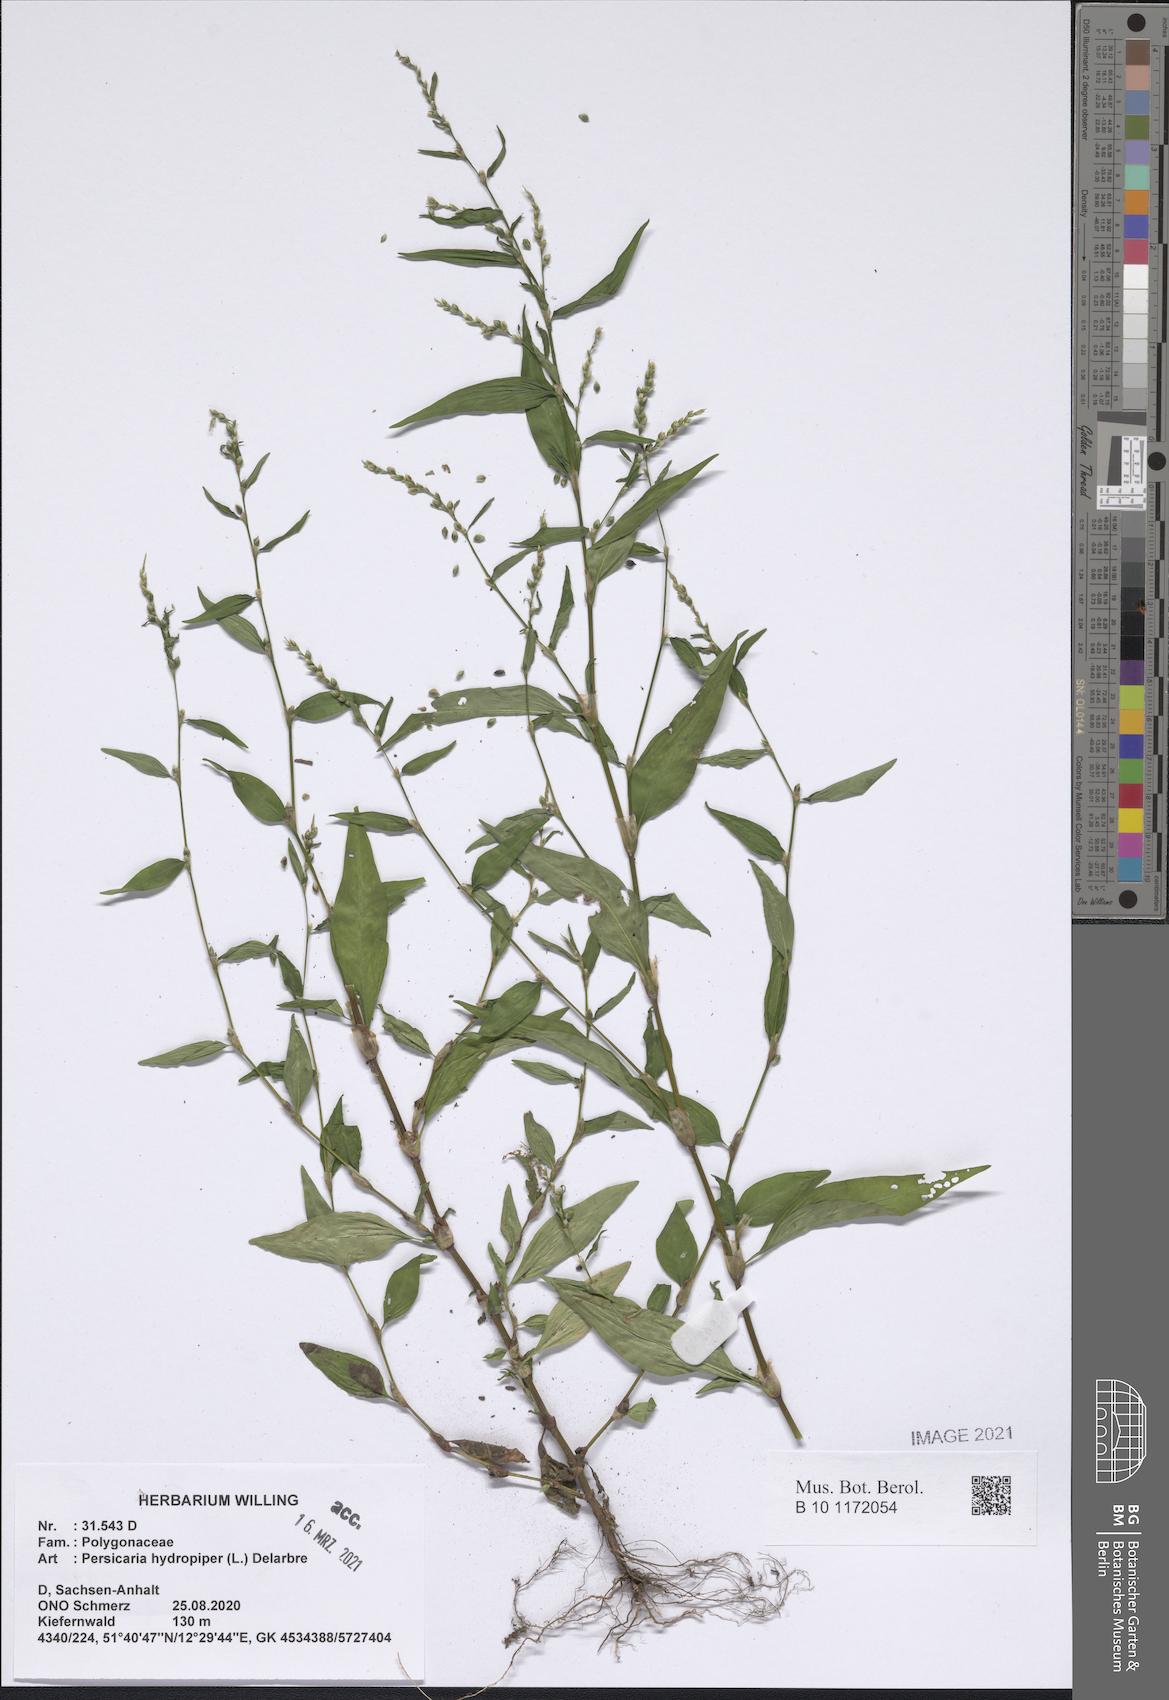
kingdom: Plantae
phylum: Tracheophyta
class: Magnoliopsida
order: Caryophyllales
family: Polygonaceae
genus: Persicaria
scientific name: Persicaria hydropiper
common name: Water-pepper
